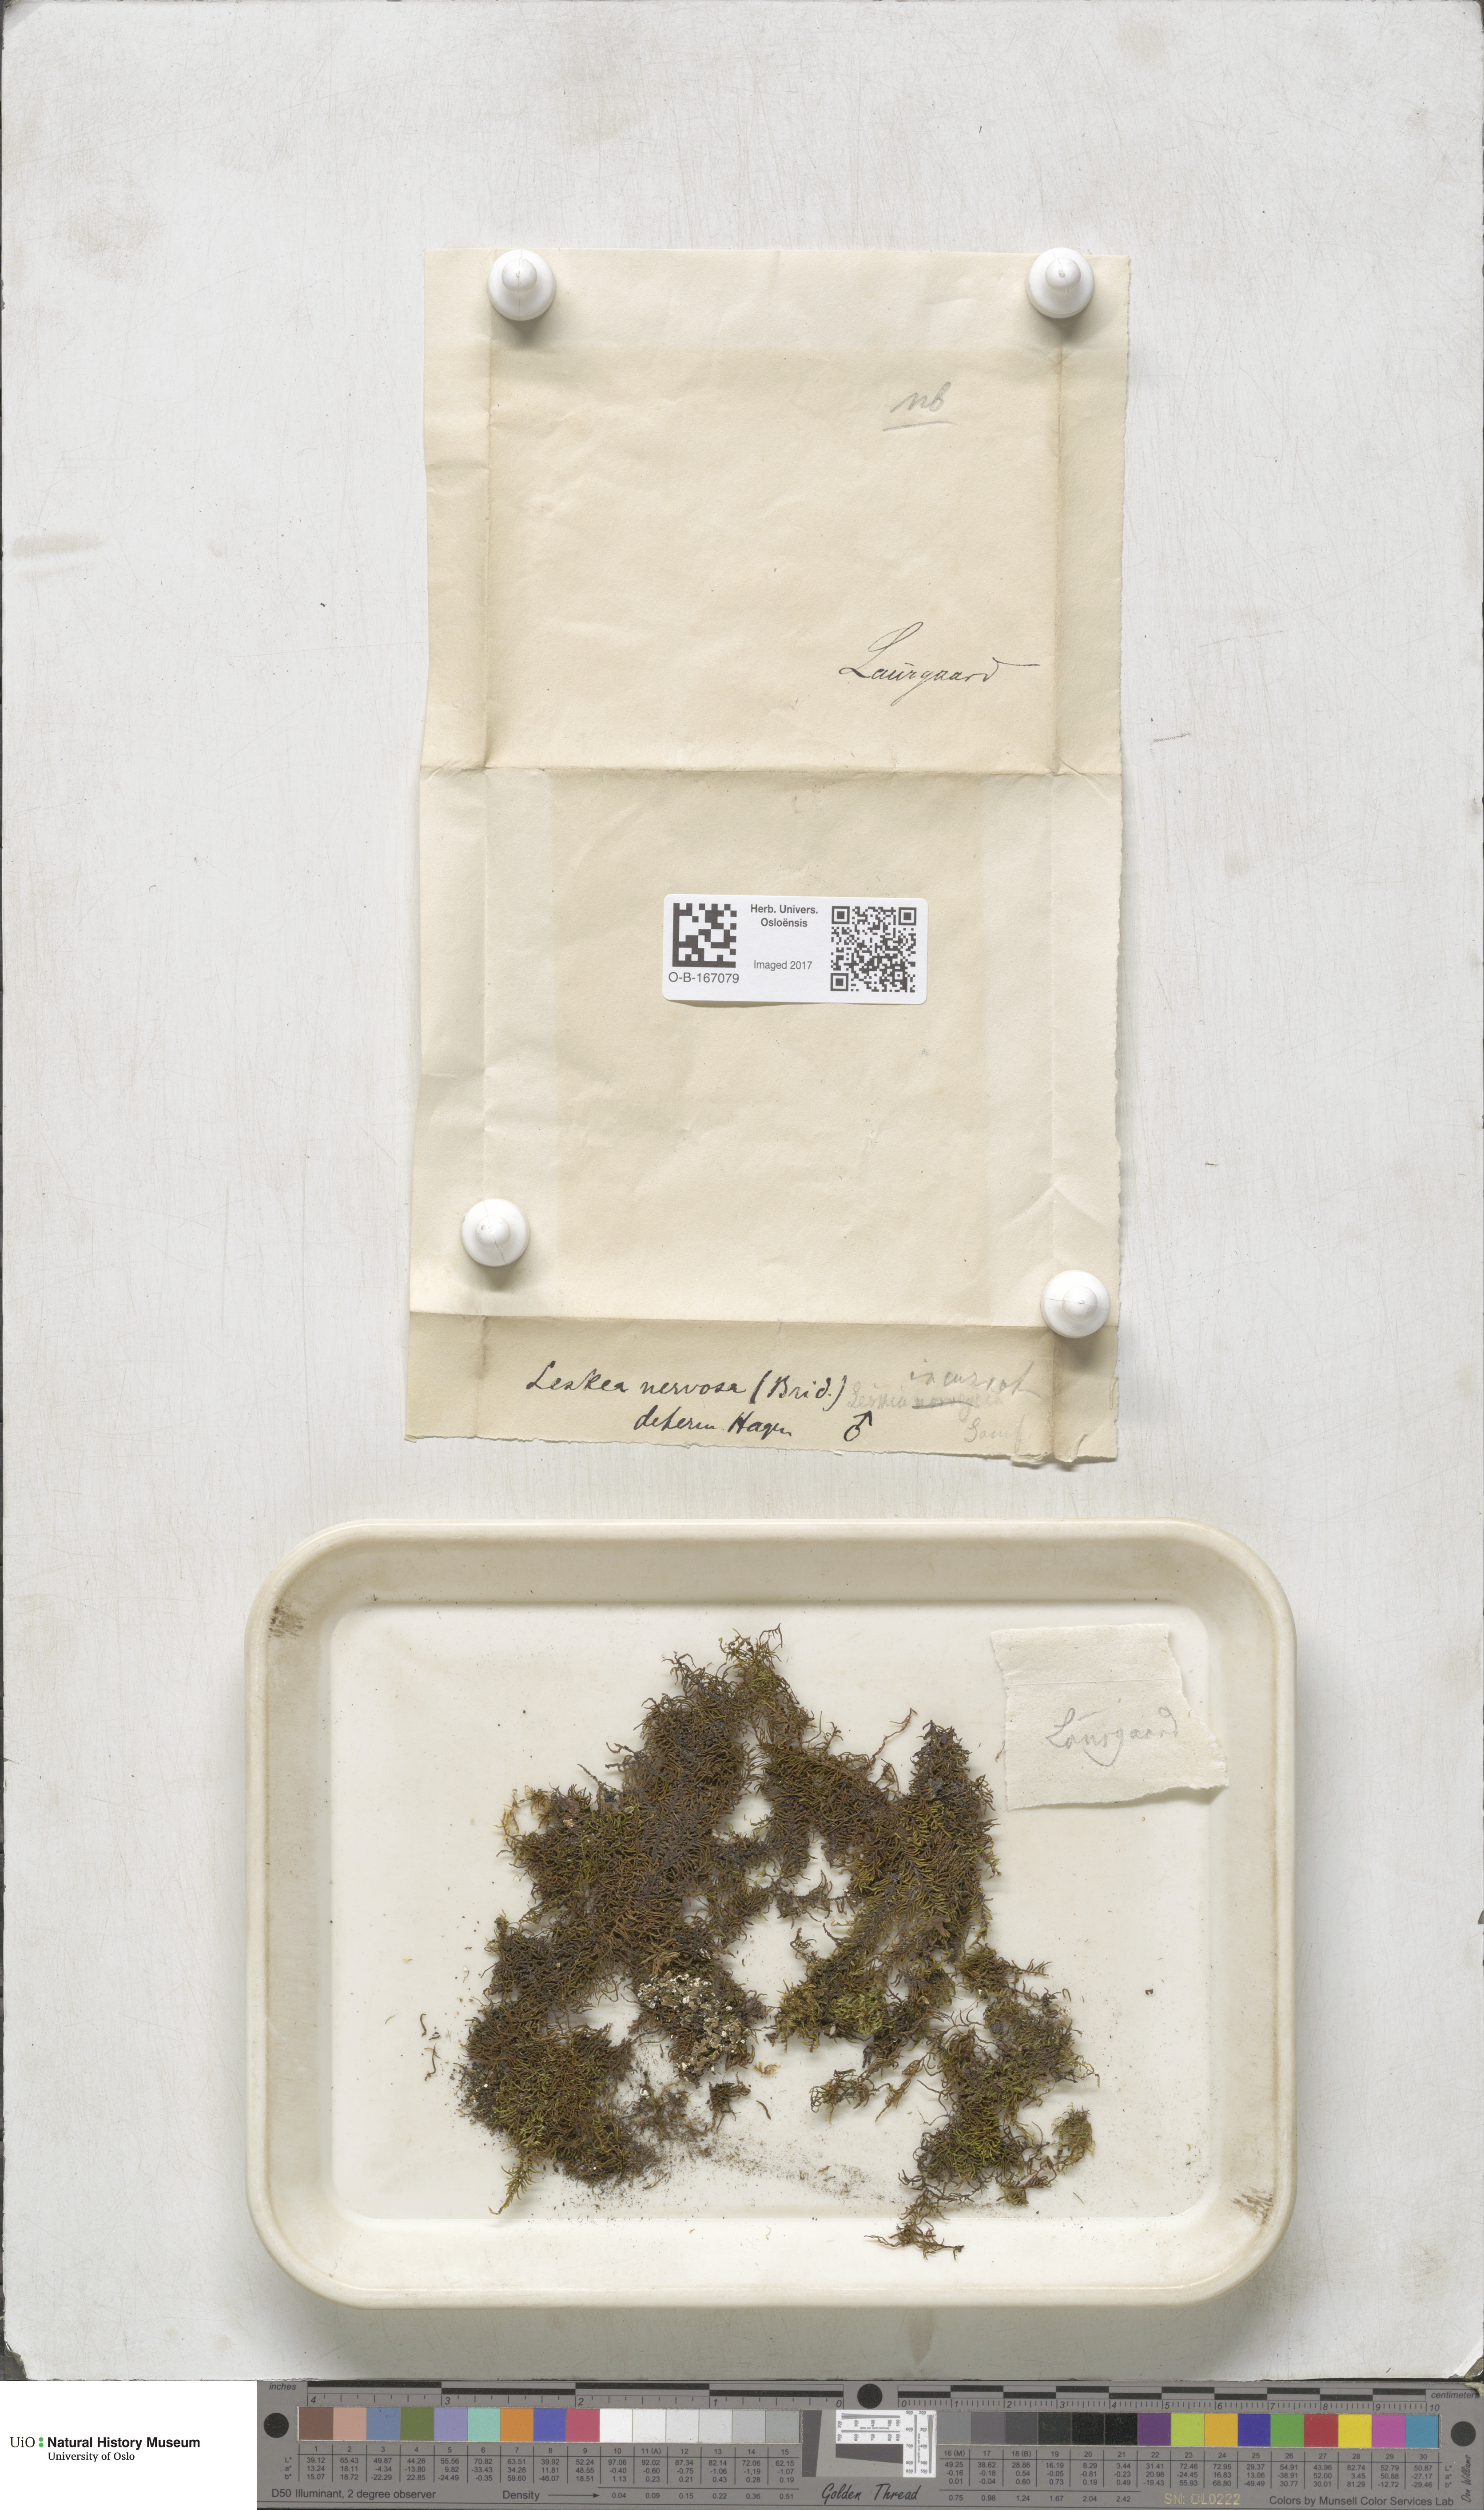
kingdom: Plantae
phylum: Bryophyta
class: Bryopsida
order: Hypnales
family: Pseudoleskeellaceae
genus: Pseudoleskeella
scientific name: Pseudoleskeella nervosa
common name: Nerved leske's moss
